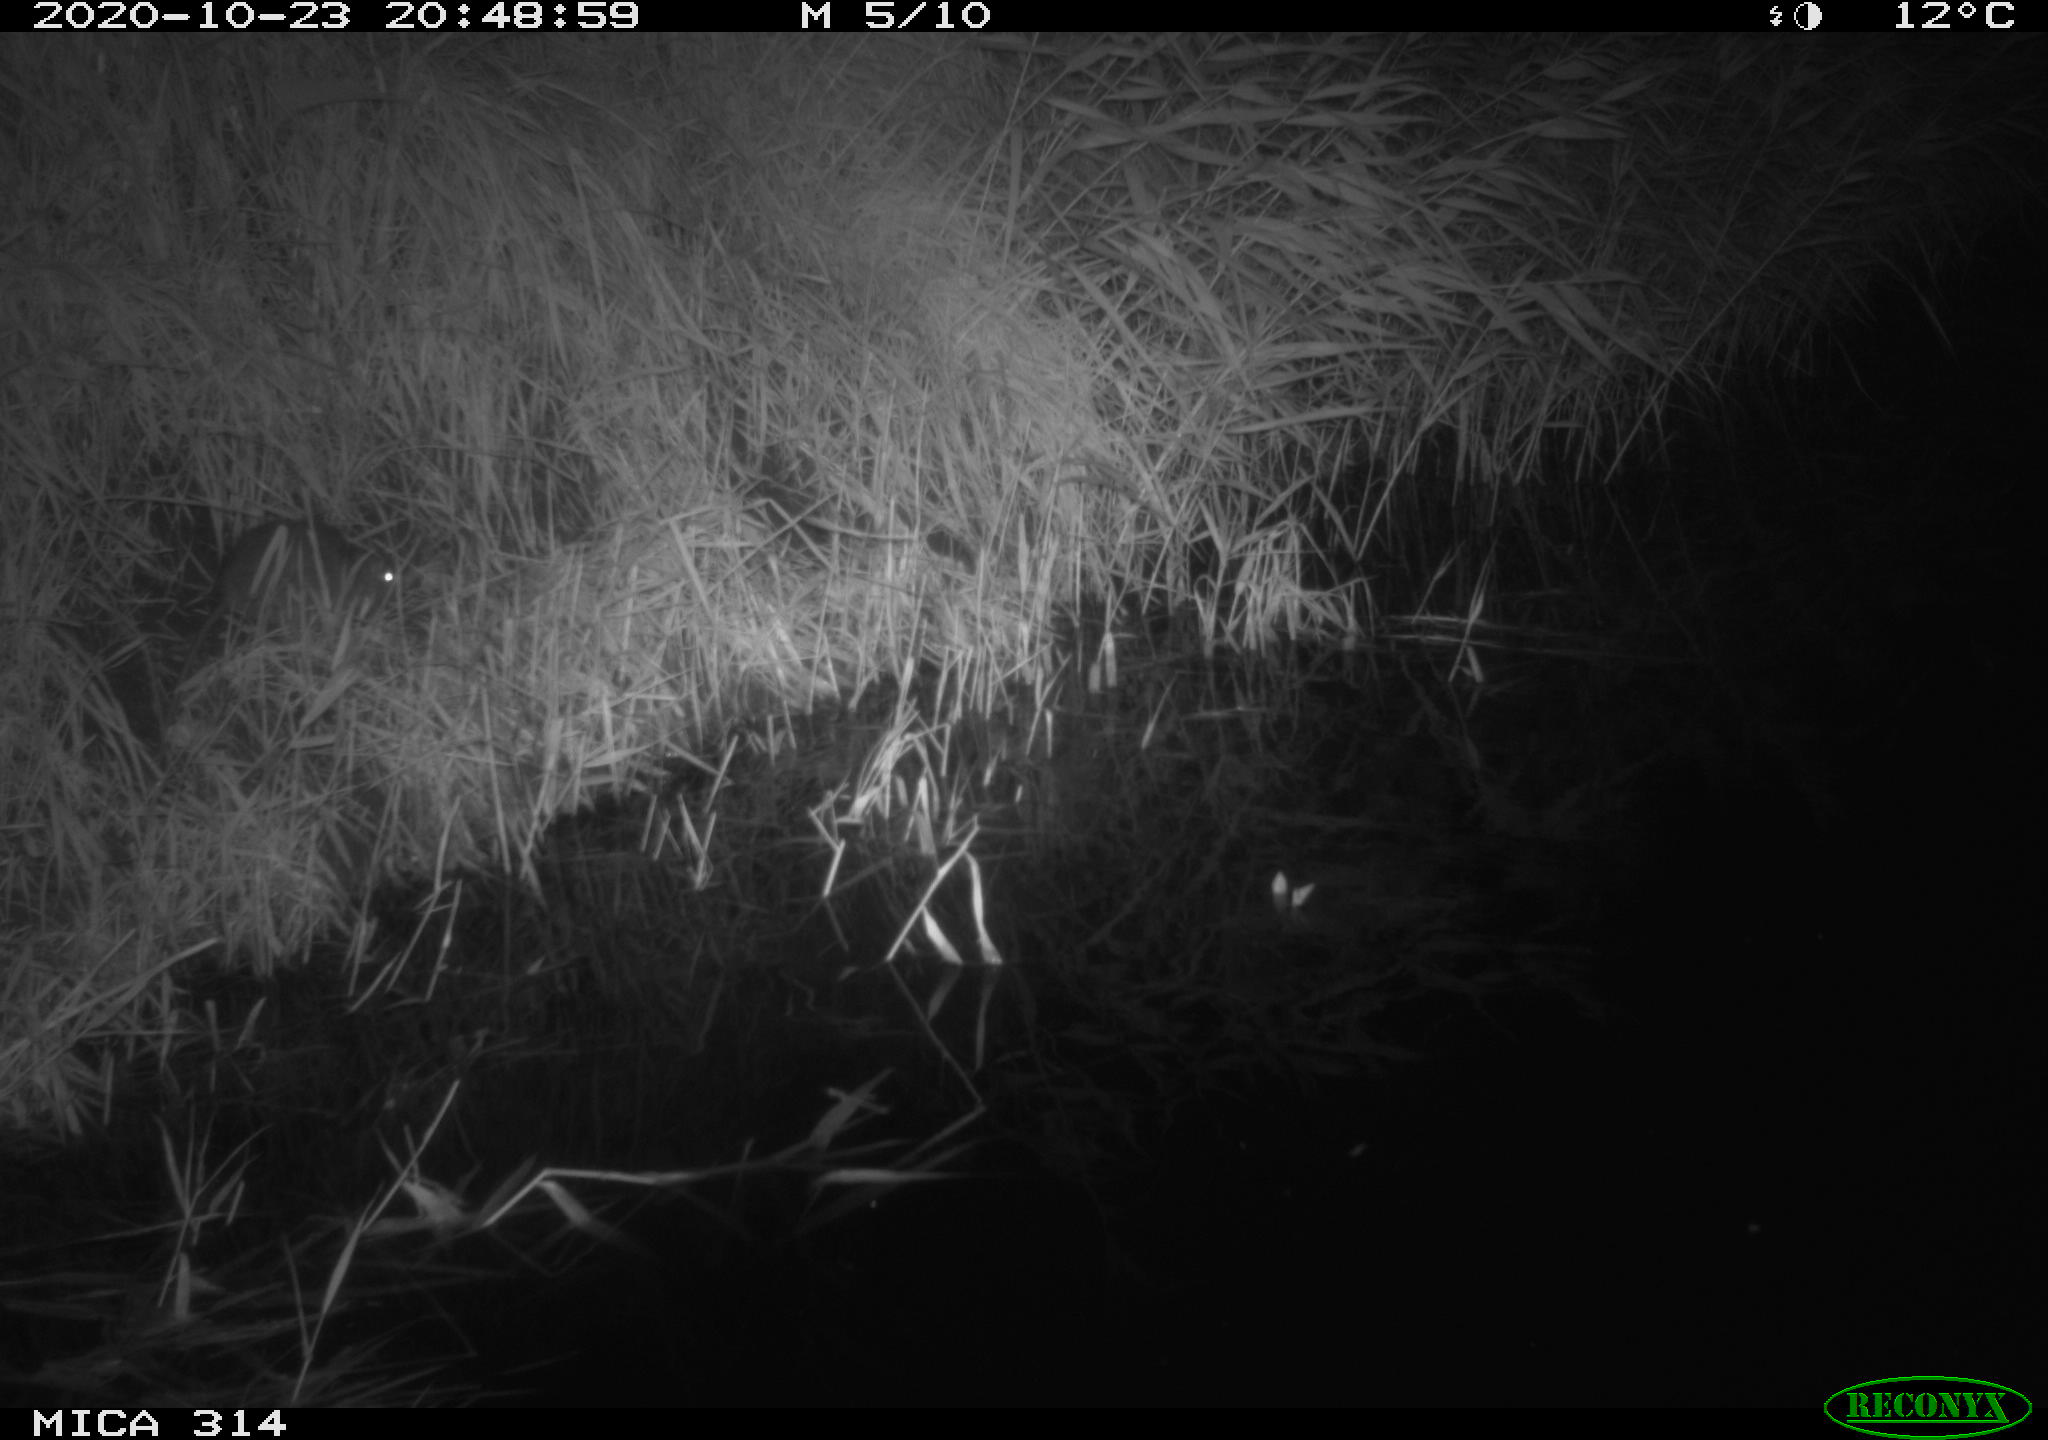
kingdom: Animalia
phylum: Chordata
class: Mammalia
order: Rodentia
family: Muridae
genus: Rattus
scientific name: Rattus norvegicus
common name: Brown rat
